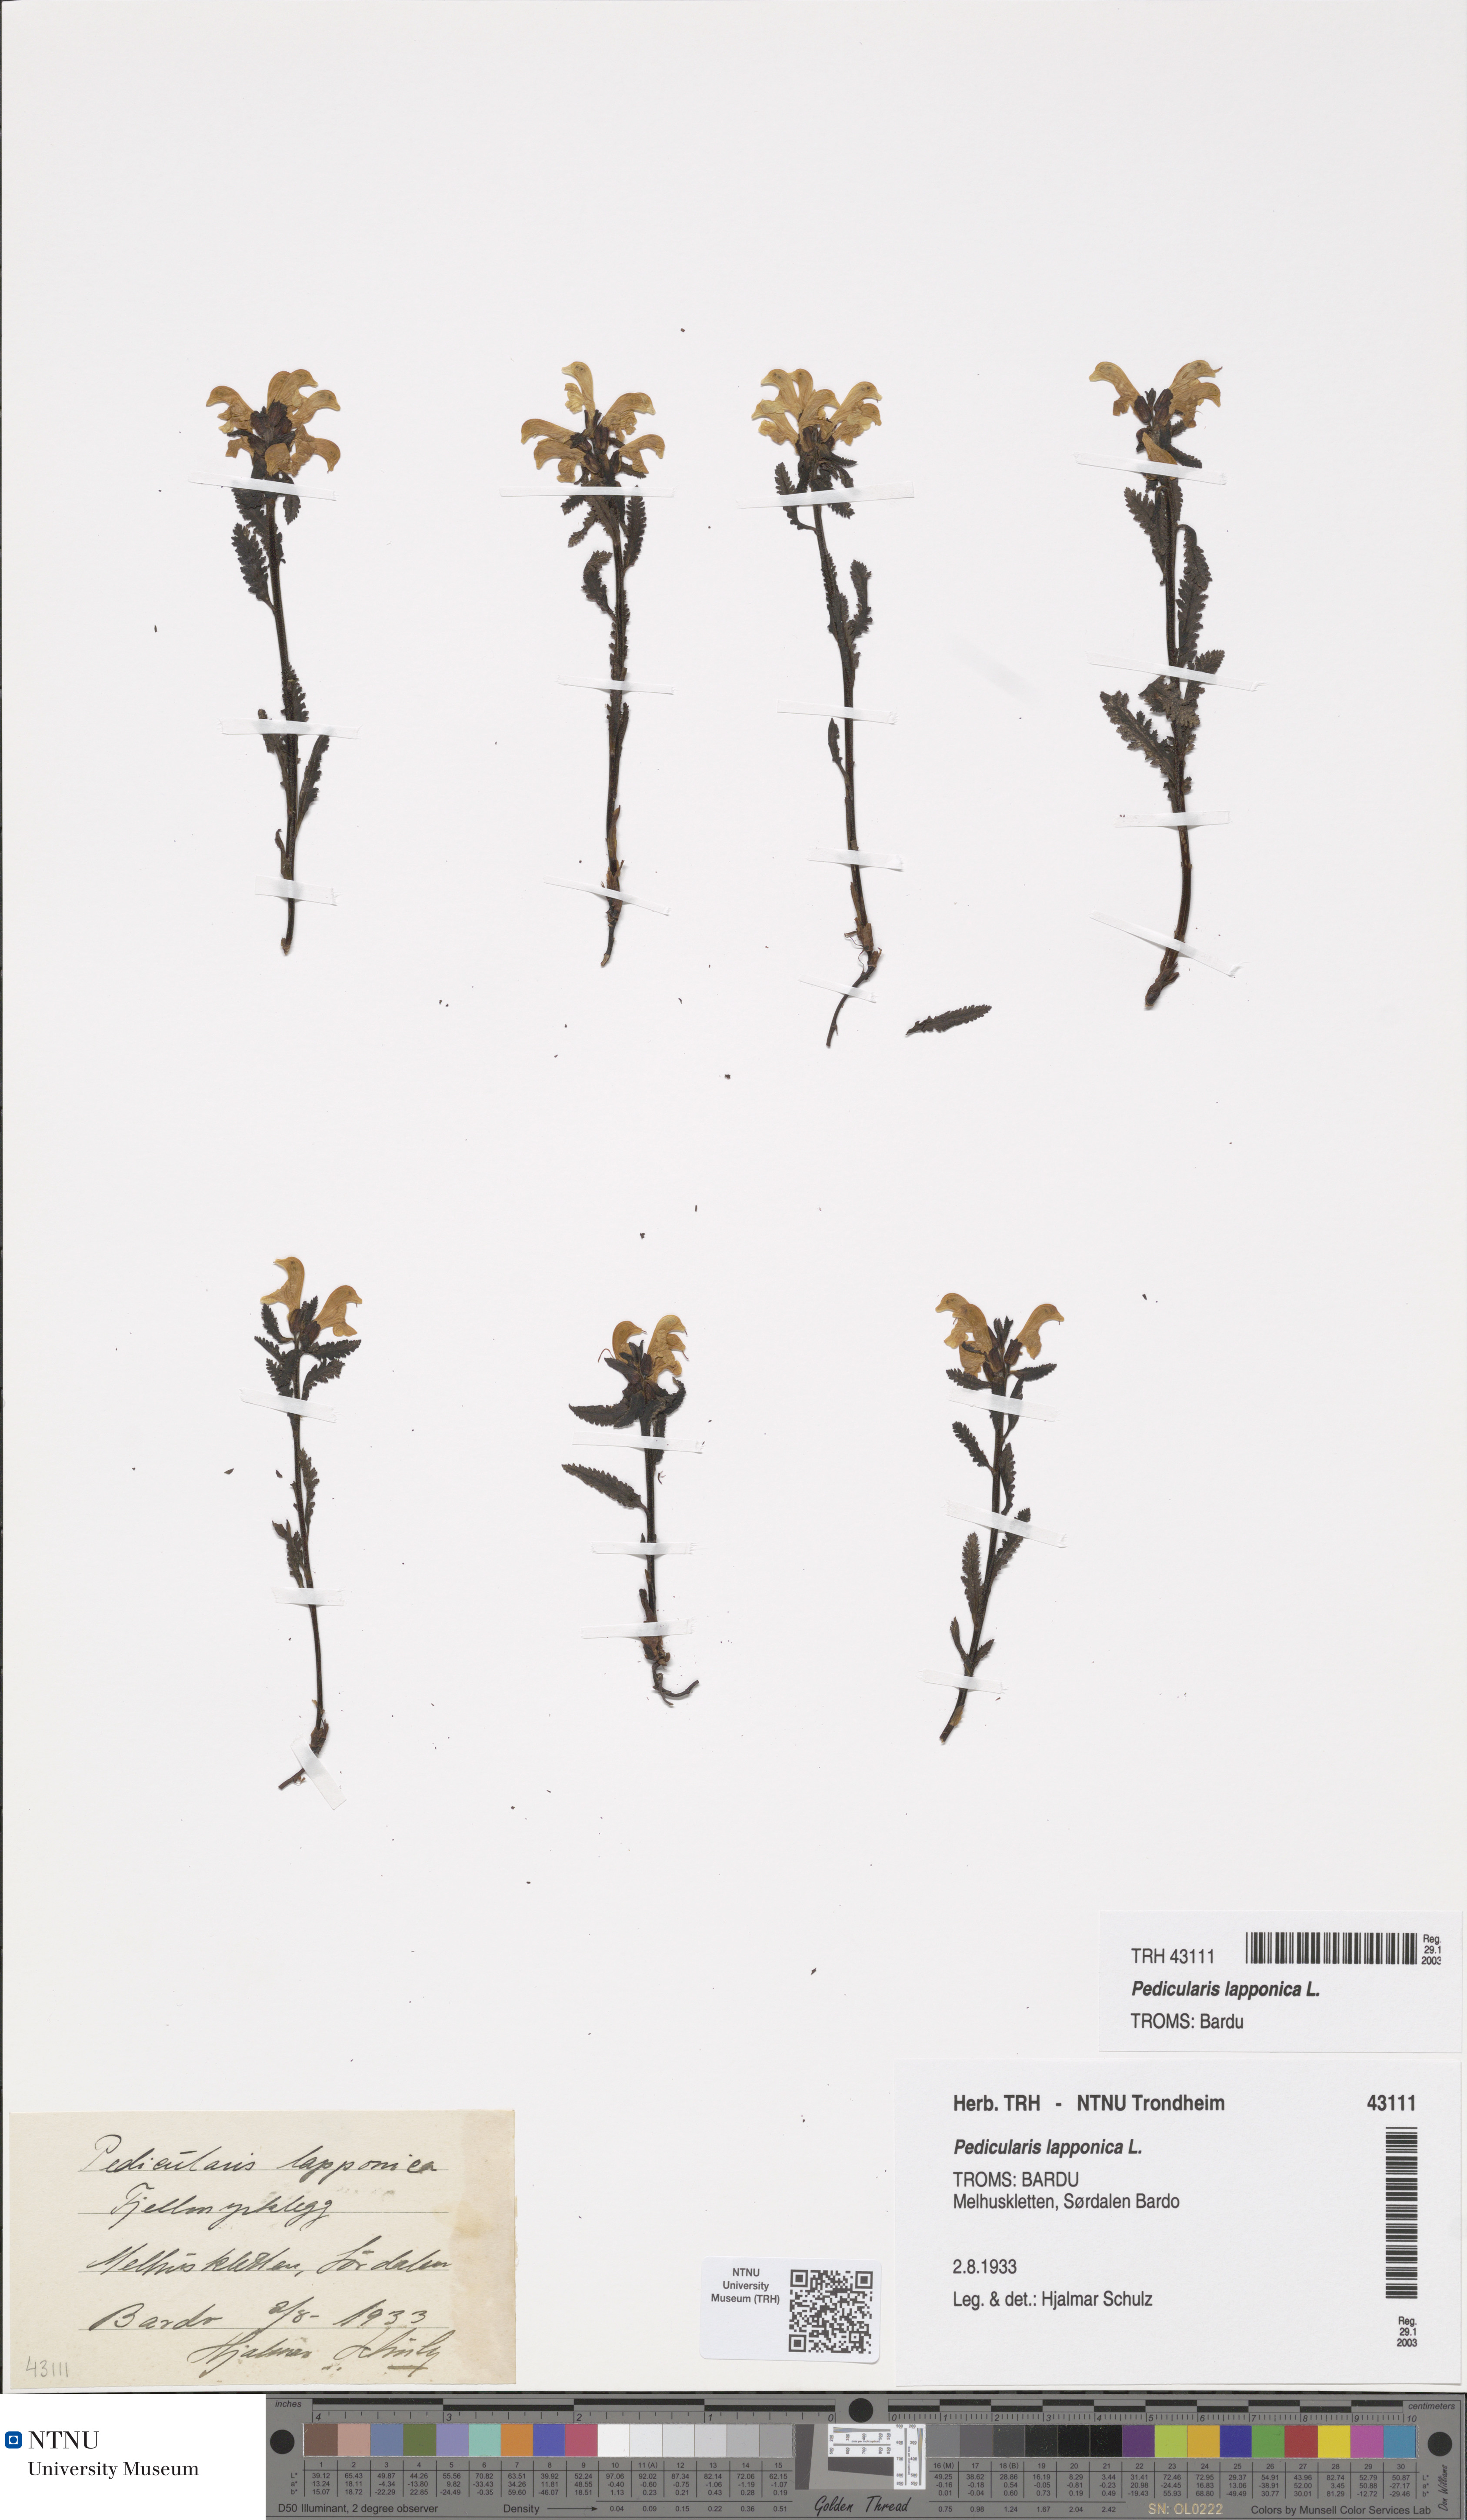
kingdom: Plantae
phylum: Tracheophyta
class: Magnoliopsida
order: Lamiales
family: Orobanchaceae
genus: Pedicularis
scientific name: Pedicularis lapponica
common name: Lapland lousewort
